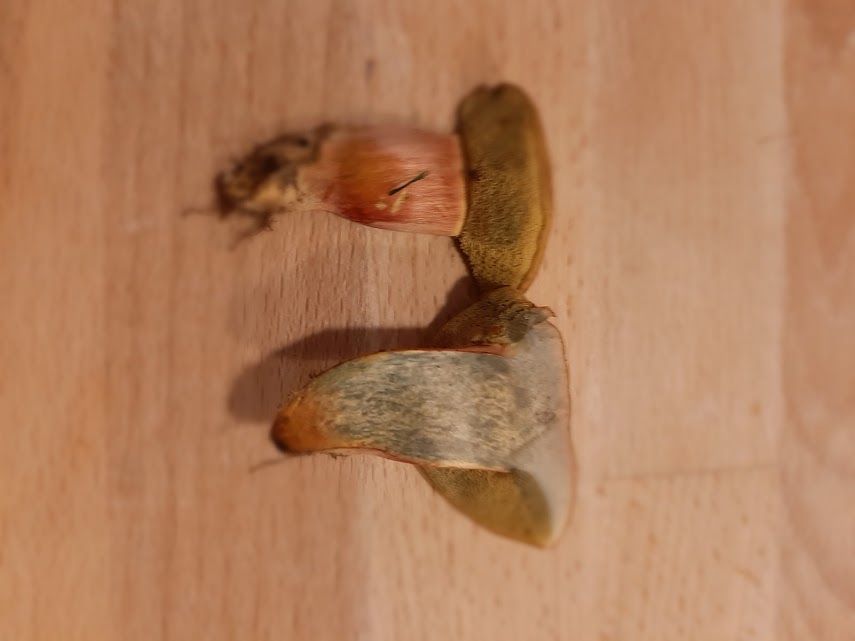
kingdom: Fungi
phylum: Basidiomycota
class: Agaricomycetes
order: Boletales
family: Boletaceae
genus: Hortiboletus
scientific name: Hortiboletus bubalinus
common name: aurora-rørhat
